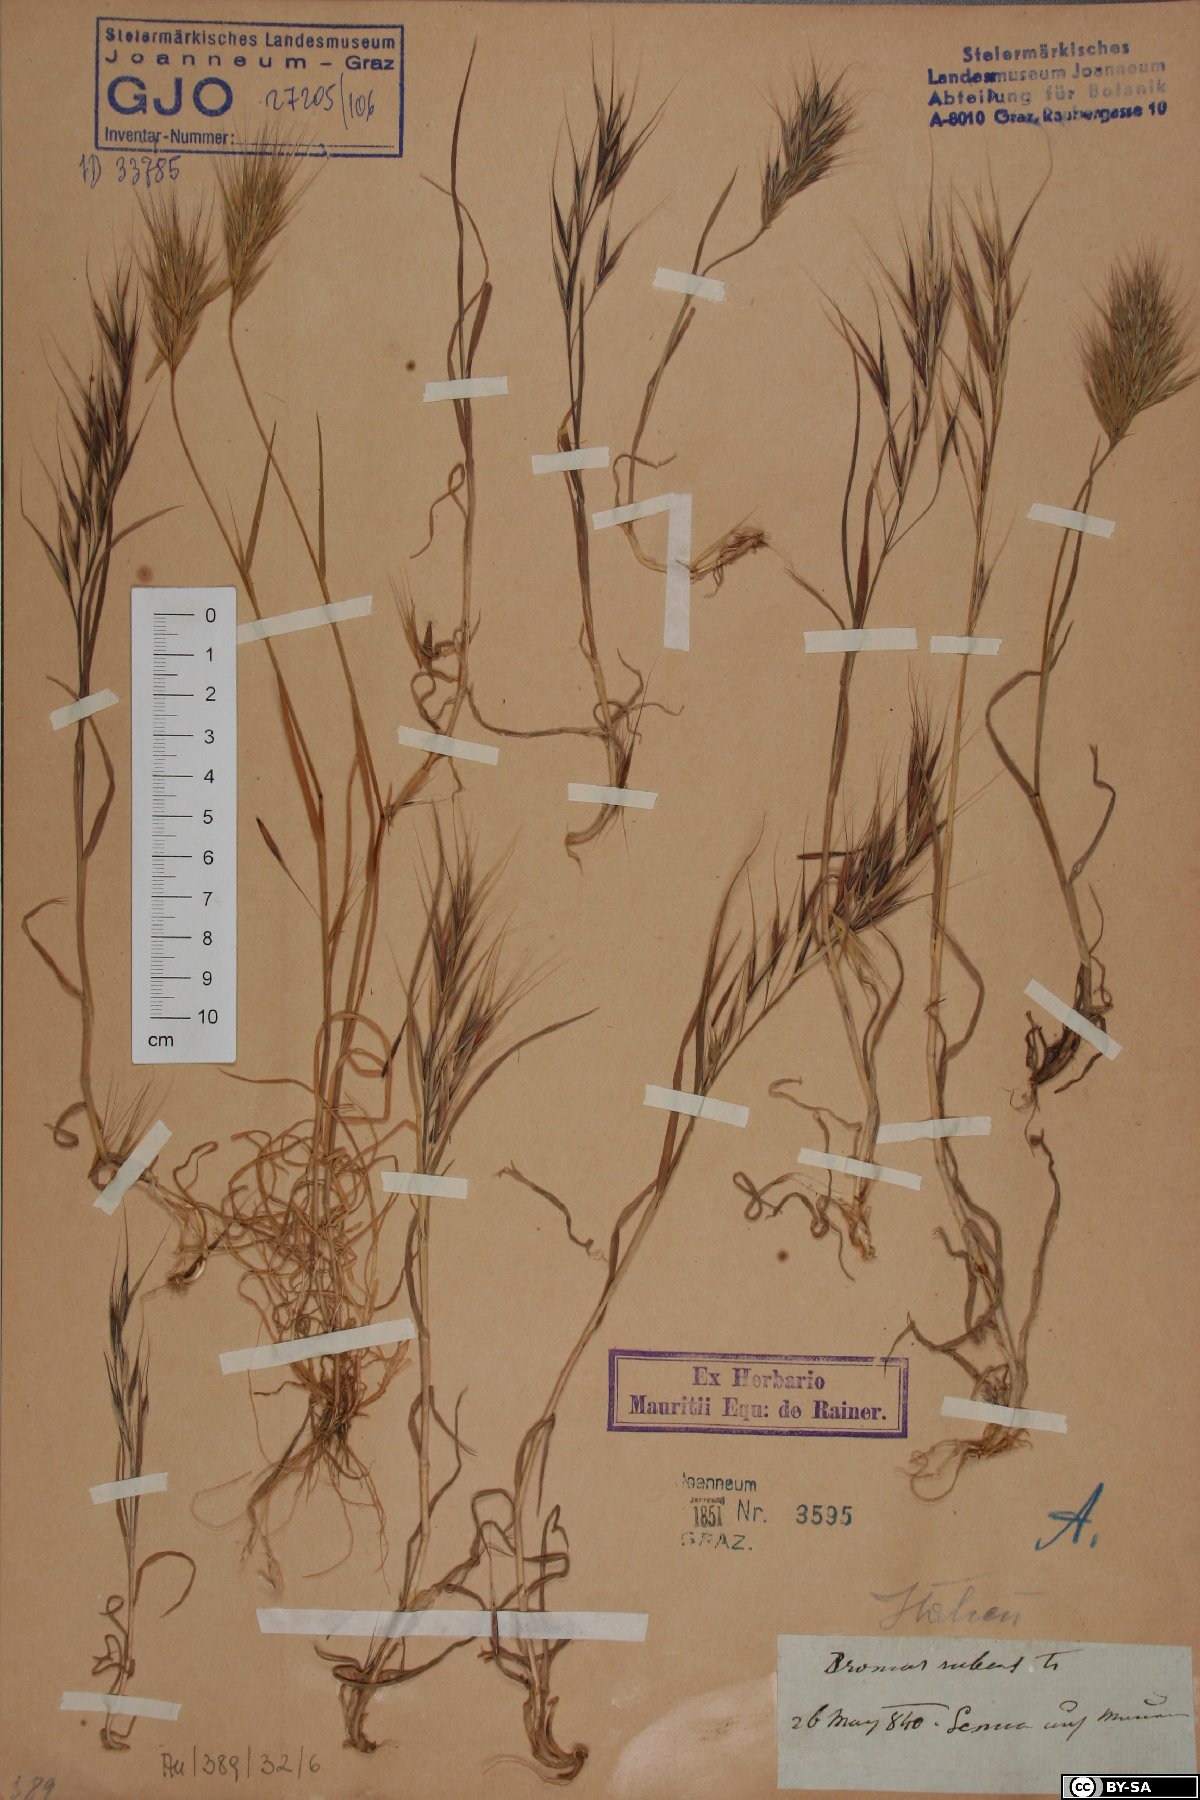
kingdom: Plantae
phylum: Tracheophyta
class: Liliopsida
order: Poales
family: Poaceae
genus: Bromus
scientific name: Bromus rubens
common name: Red brome
